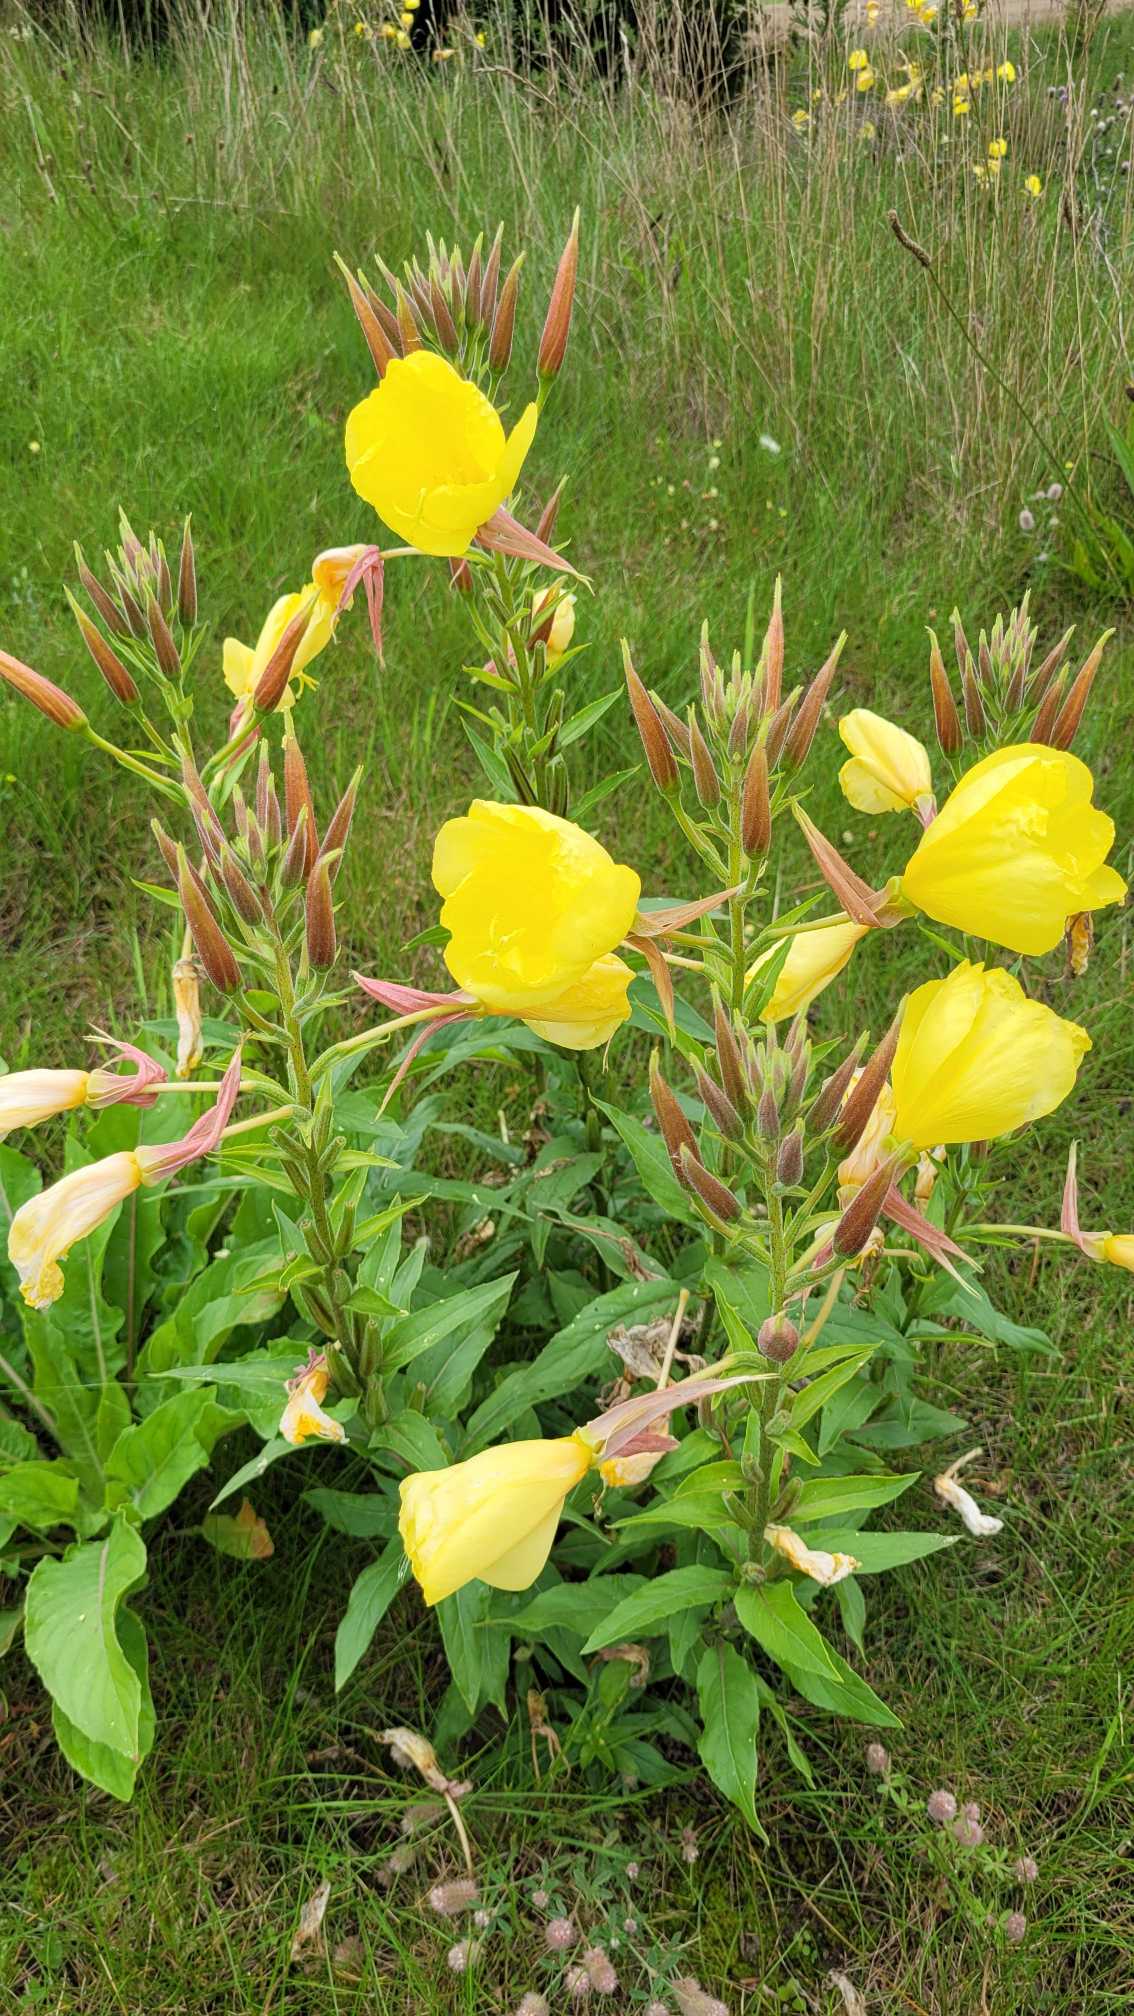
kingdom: Plantae
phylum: Tracheophyta
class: Magnoliopsida
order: Myrtales
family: Onagraceae
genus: Oenothera
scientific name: Oenothera glazioviana
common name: Kæmpe-natlys
